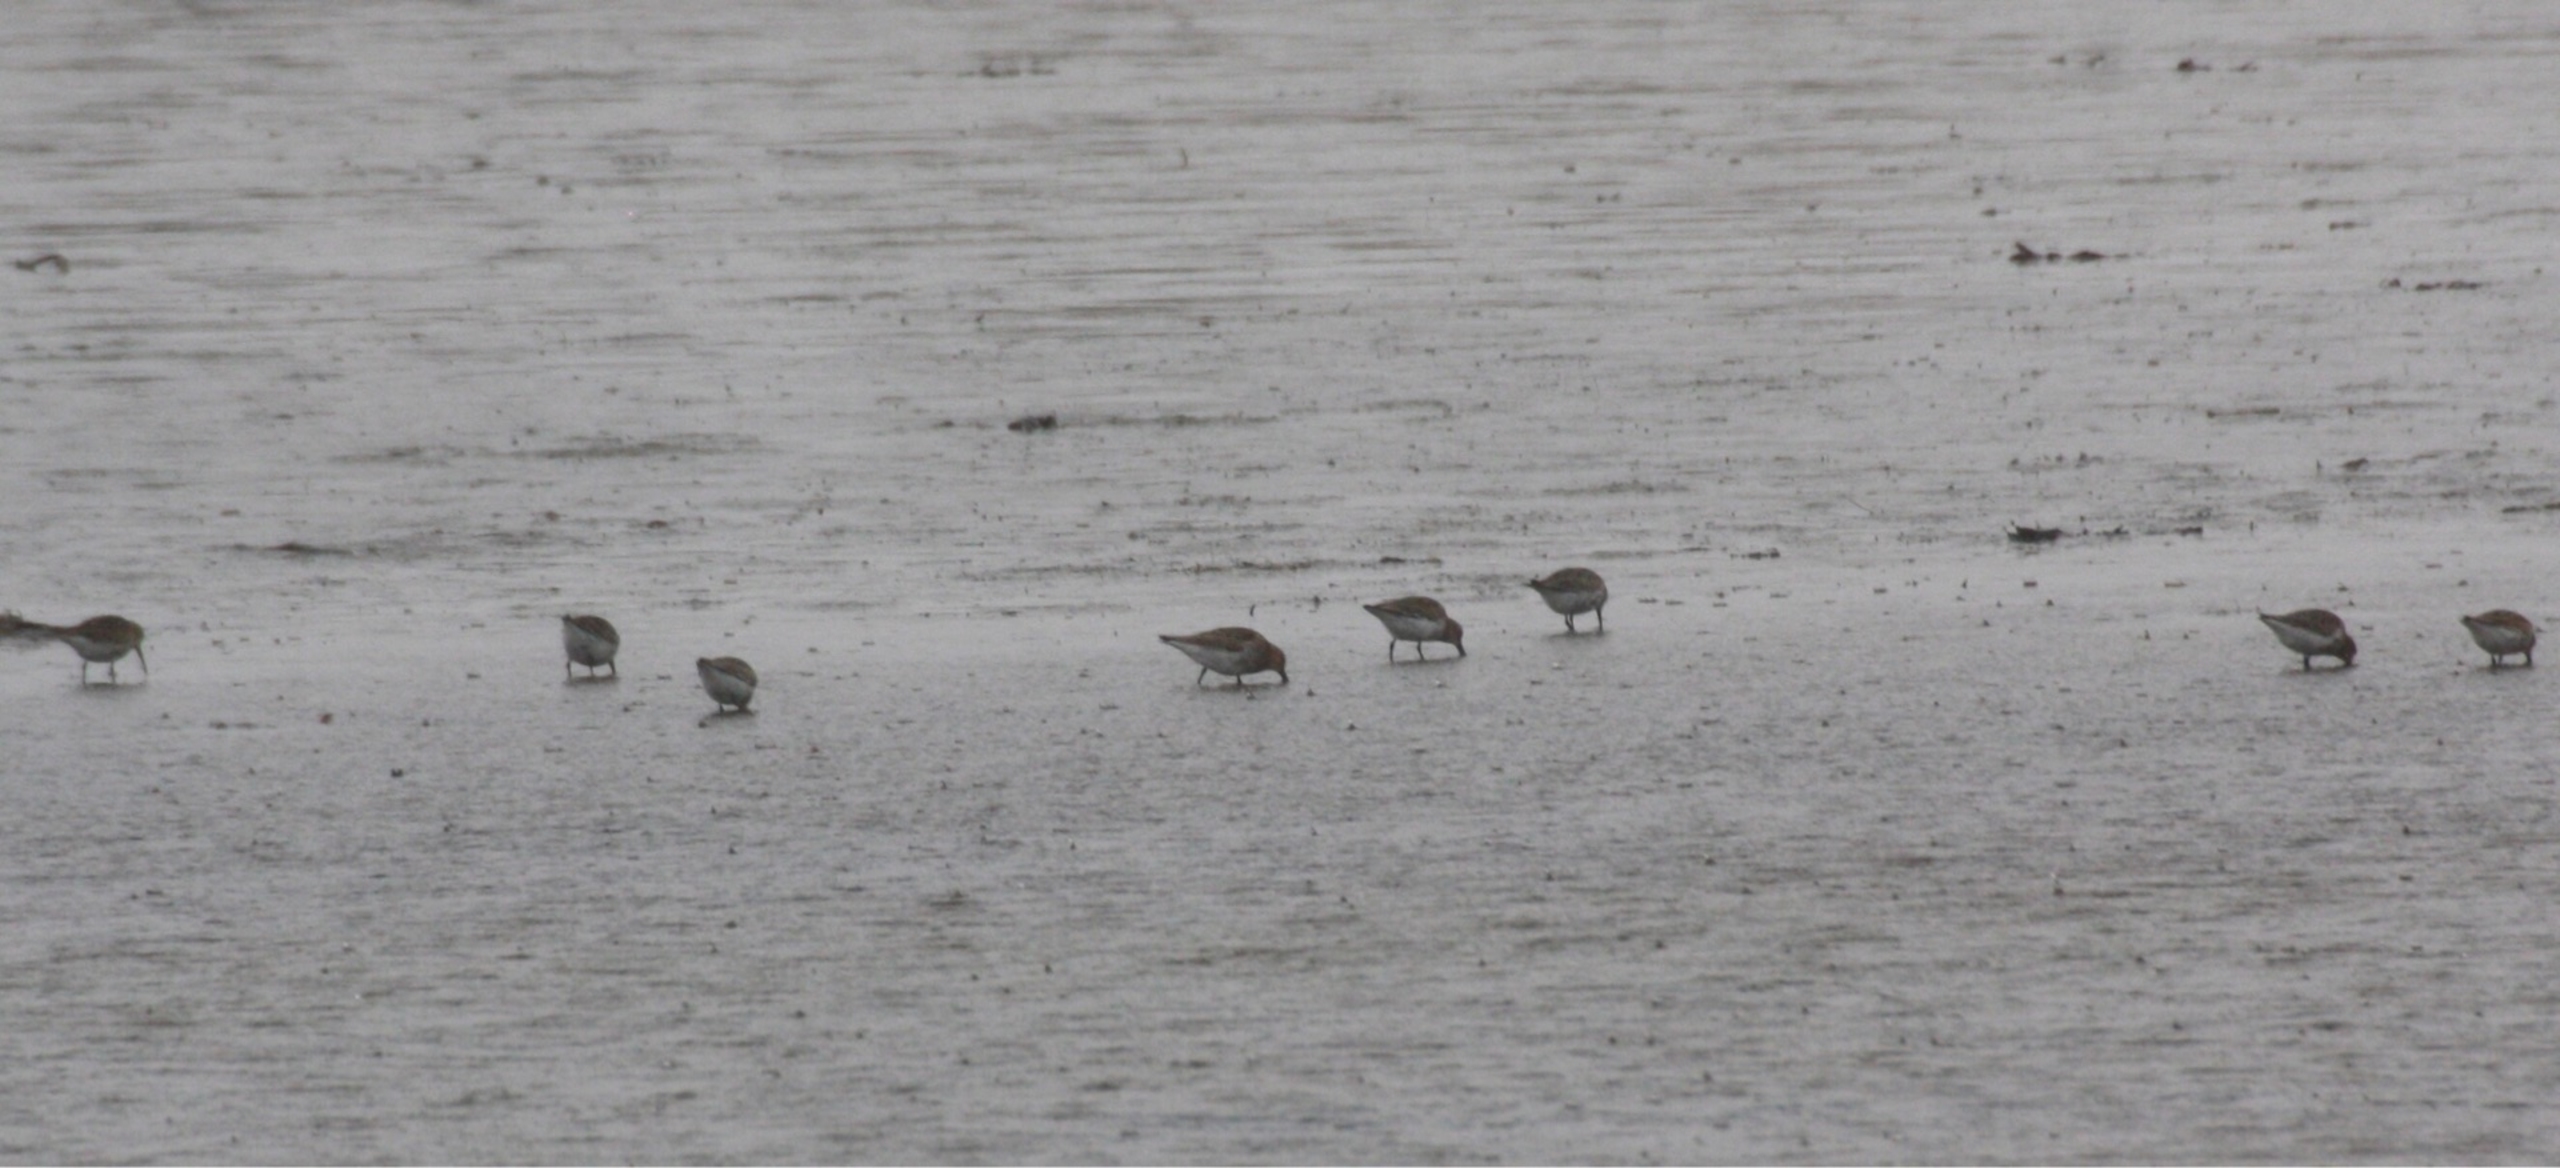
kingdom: Animalia
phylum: Chordata
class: Aves
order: Charadriiformes
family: Scolopacidae
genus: Calidris
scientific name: Calidris alpina
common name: Almindelig ryle
